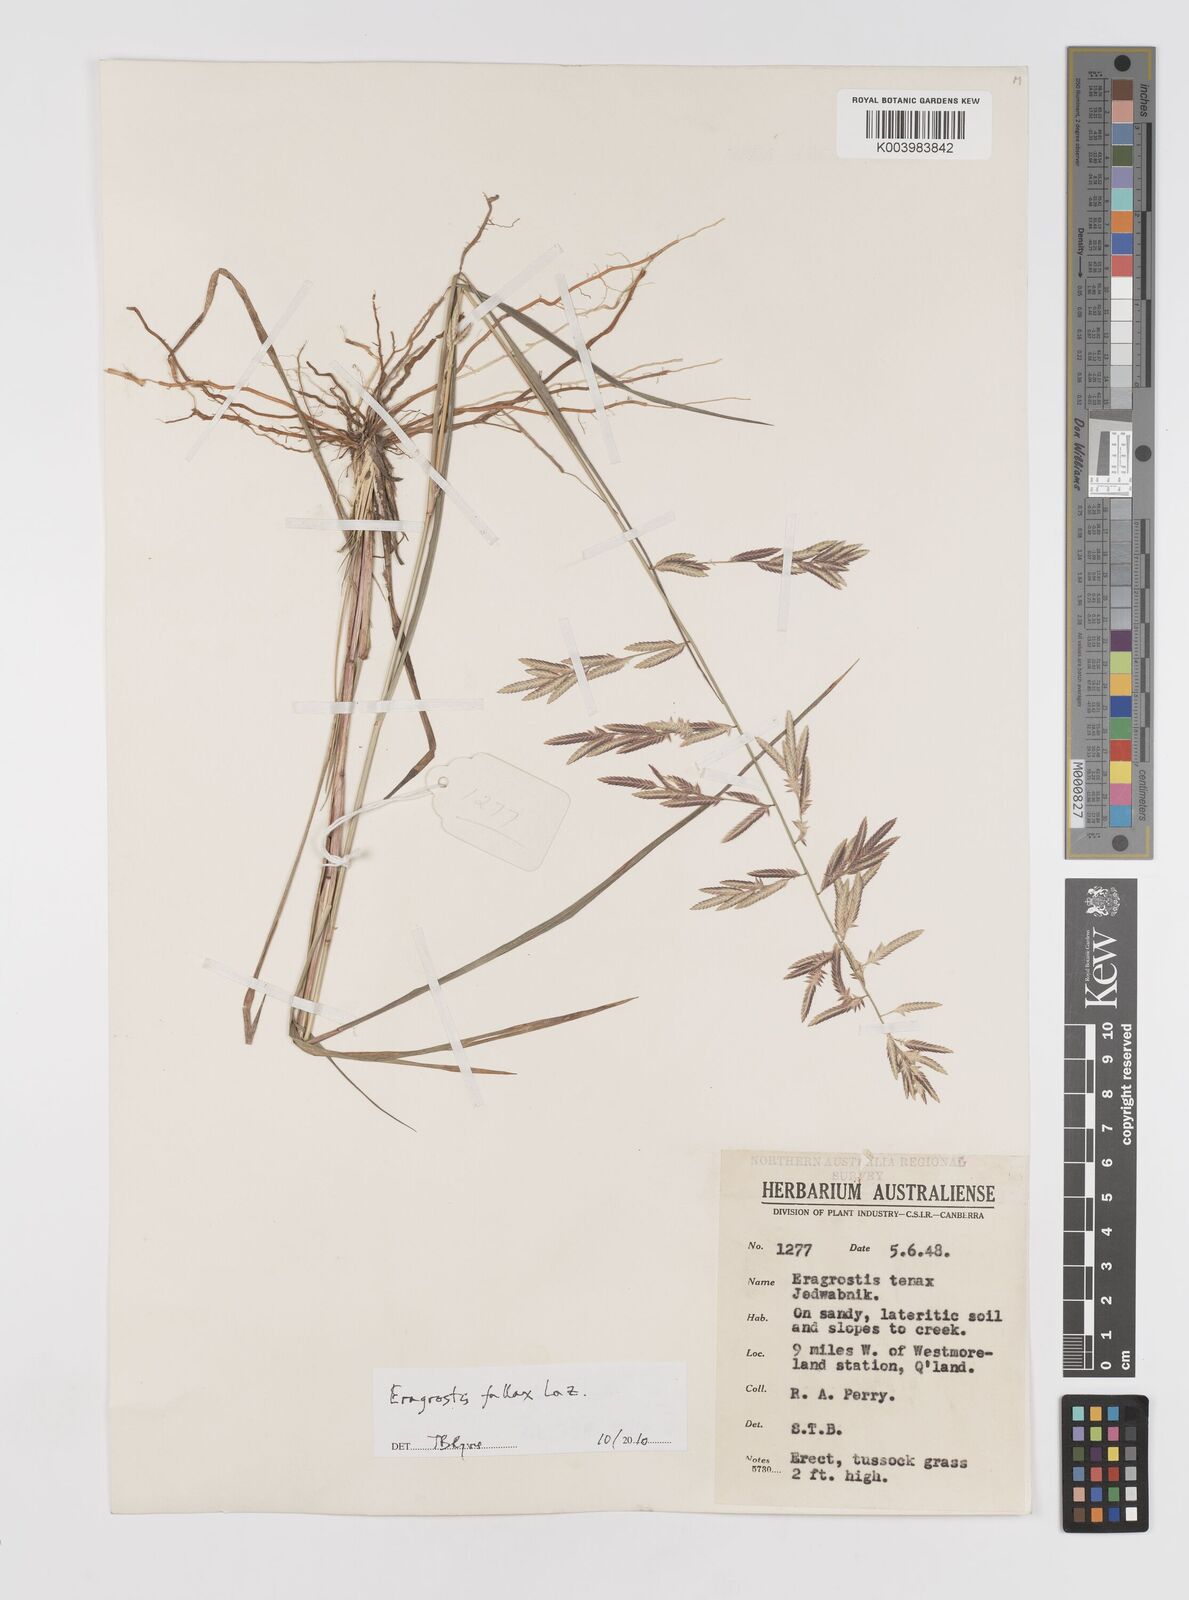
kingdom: Plantae
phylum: Tracheophyta
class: Liliopsida
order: Poales
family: Poaceae
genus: Eragrostis
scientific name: Eragrostis fallax
